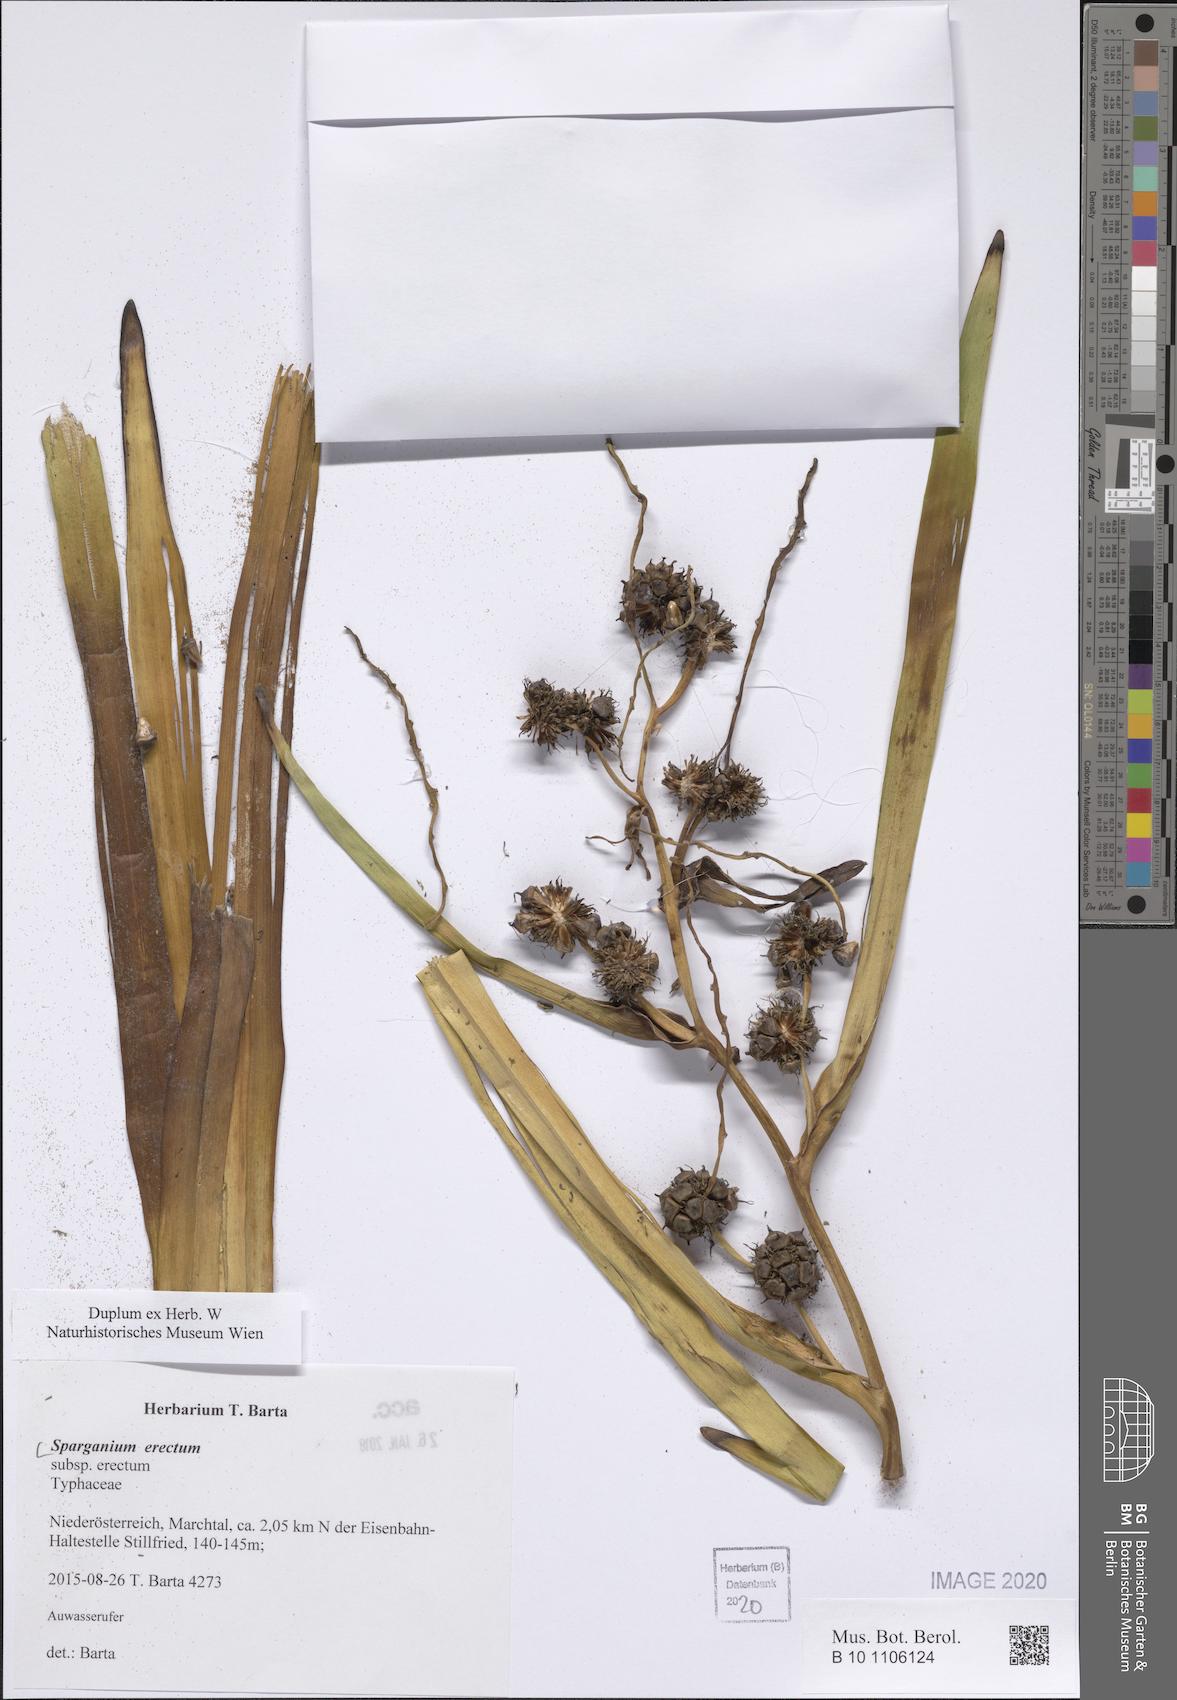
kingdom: Plantae
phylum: Tracheophyta
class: Liliopsida
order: Poales
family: Typhaceae
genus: Sparganium
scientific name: Sparganium erectum
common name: Branched bur-reed
